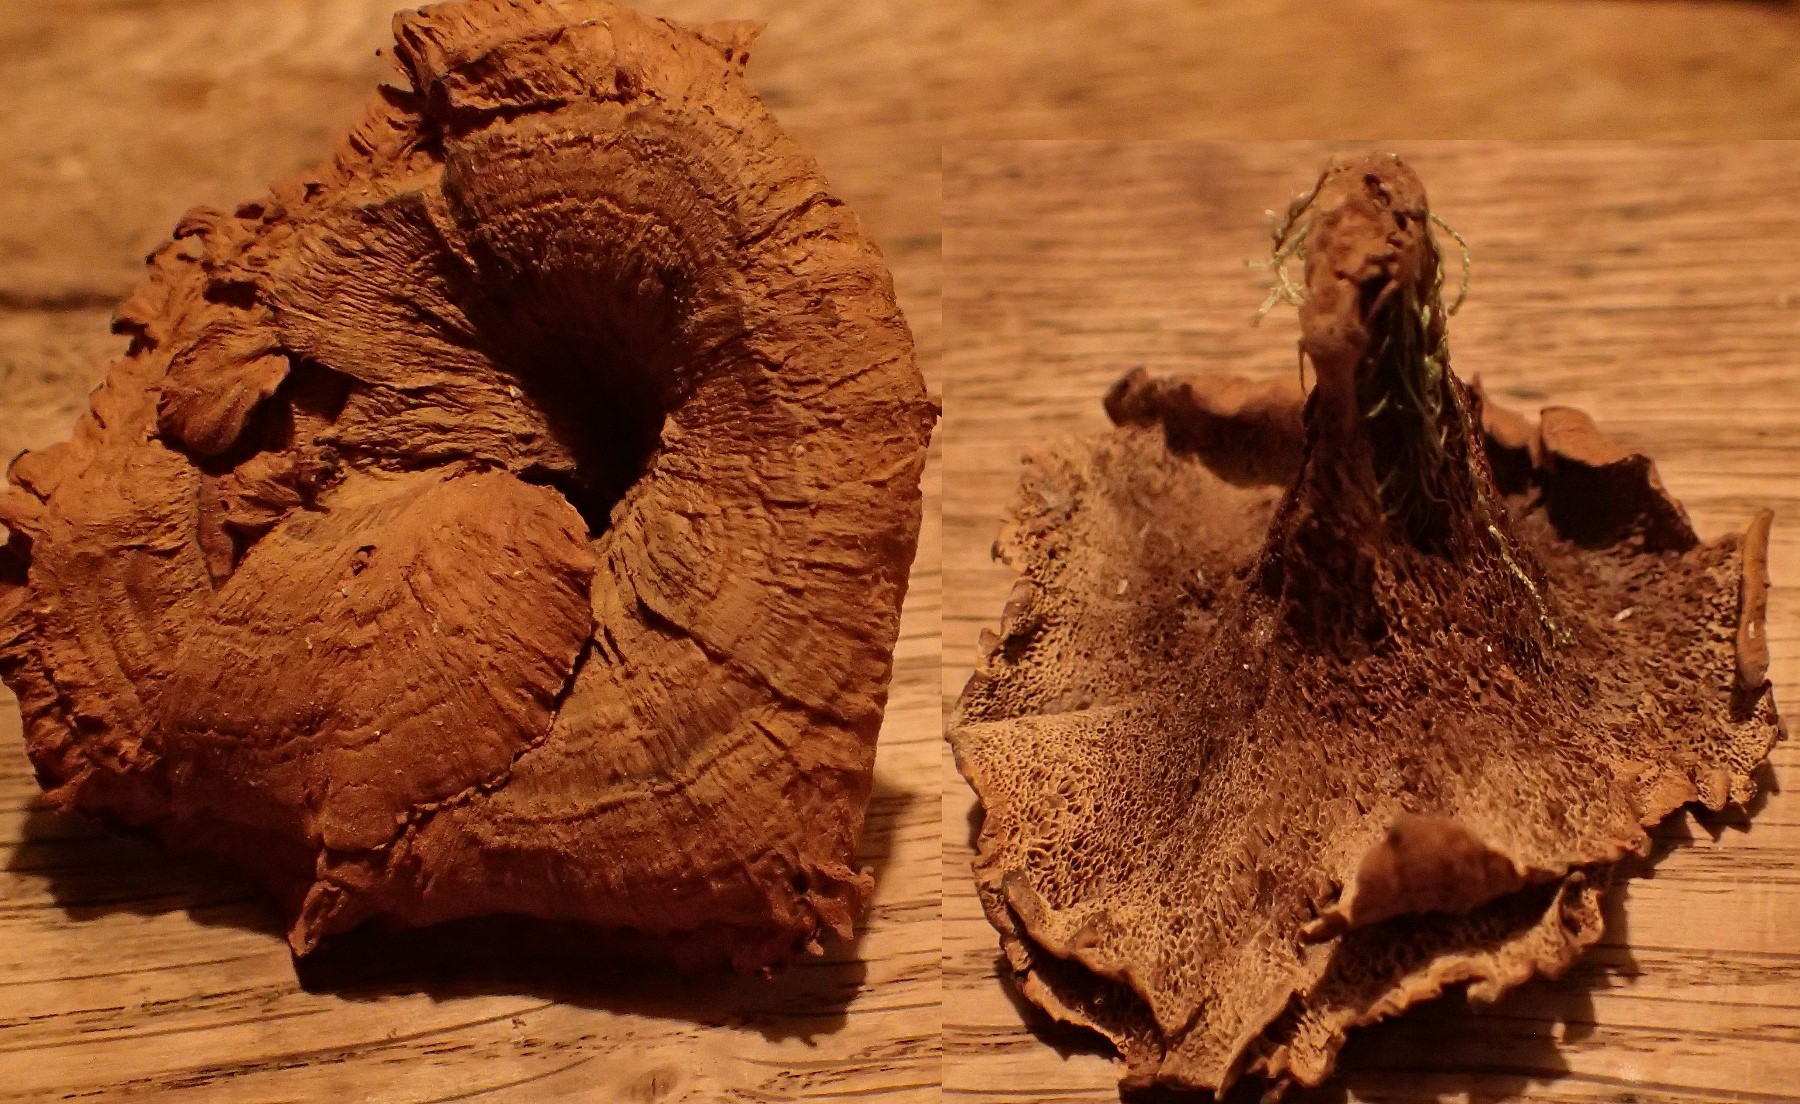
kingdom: Fungi
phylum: Basidiomycota
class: Agaricomycetes
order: Hymenochaetales
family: Hymenochaetaceae
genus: Coltricia
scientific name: Coltricia perennis
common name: almindelig sandporesvamp
